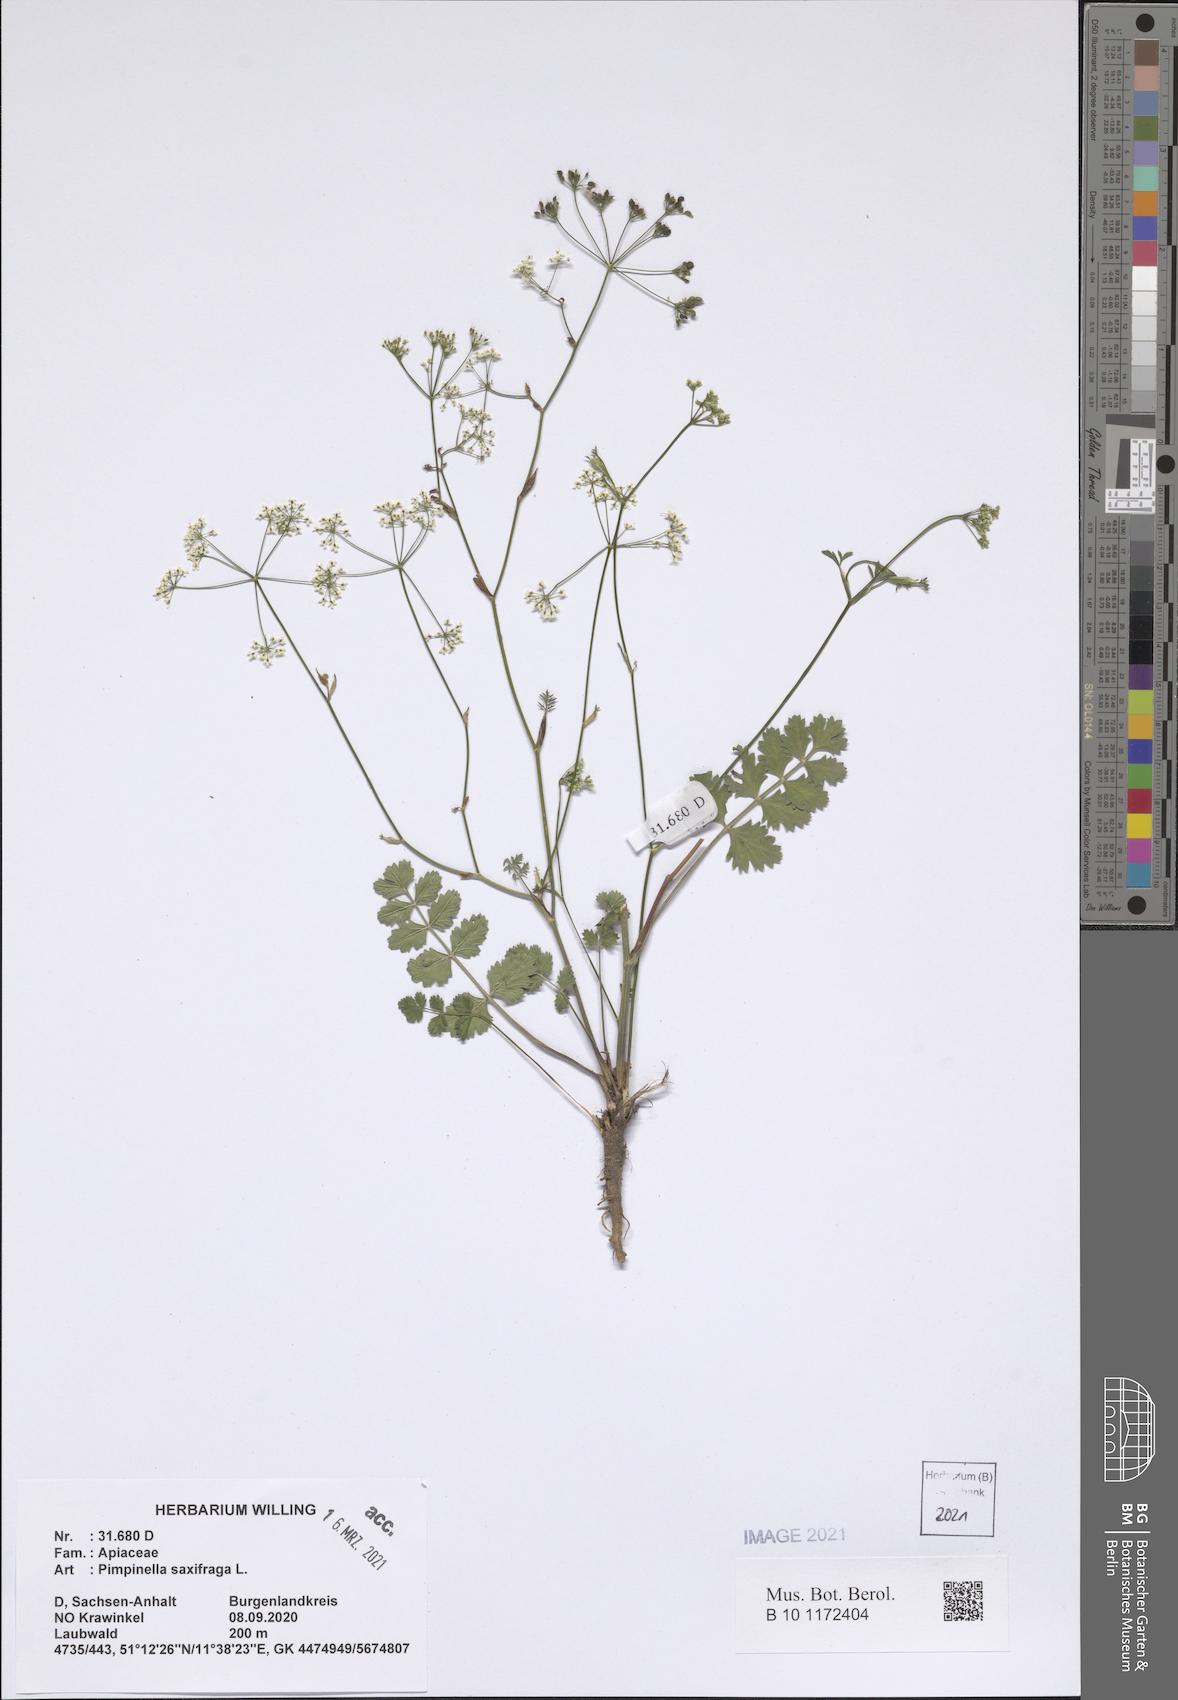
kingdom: Plantae
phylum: Tracheophyta
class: Magnoliopsida
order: Apiales
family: Apiaceae
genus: Pimpinella
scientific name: Pimpinella saxifraga
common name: Burnet-saxifrage
